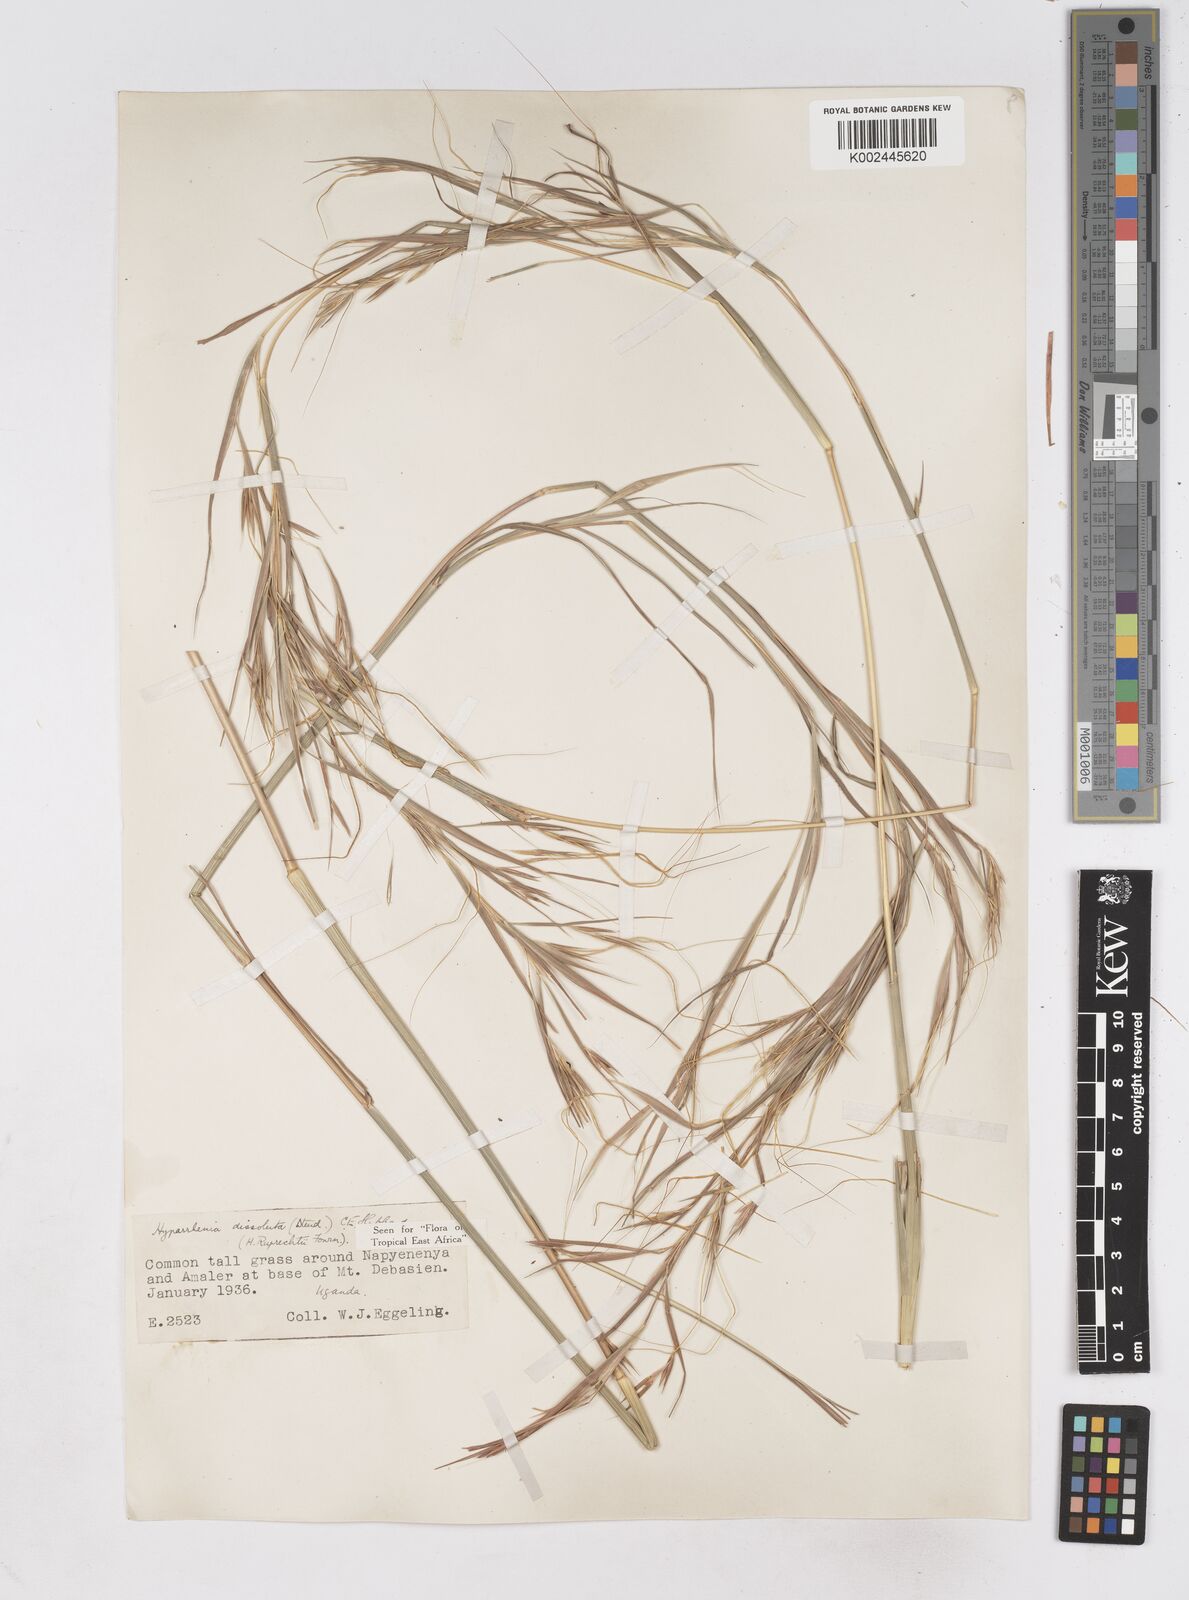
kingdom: Plantae
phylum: Tracheophyta
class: Liliopsida
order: Poales
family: Poaceae
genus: Hyperthelia
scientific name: Hyperthelia dissoluta
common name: Yellow thatching grass
